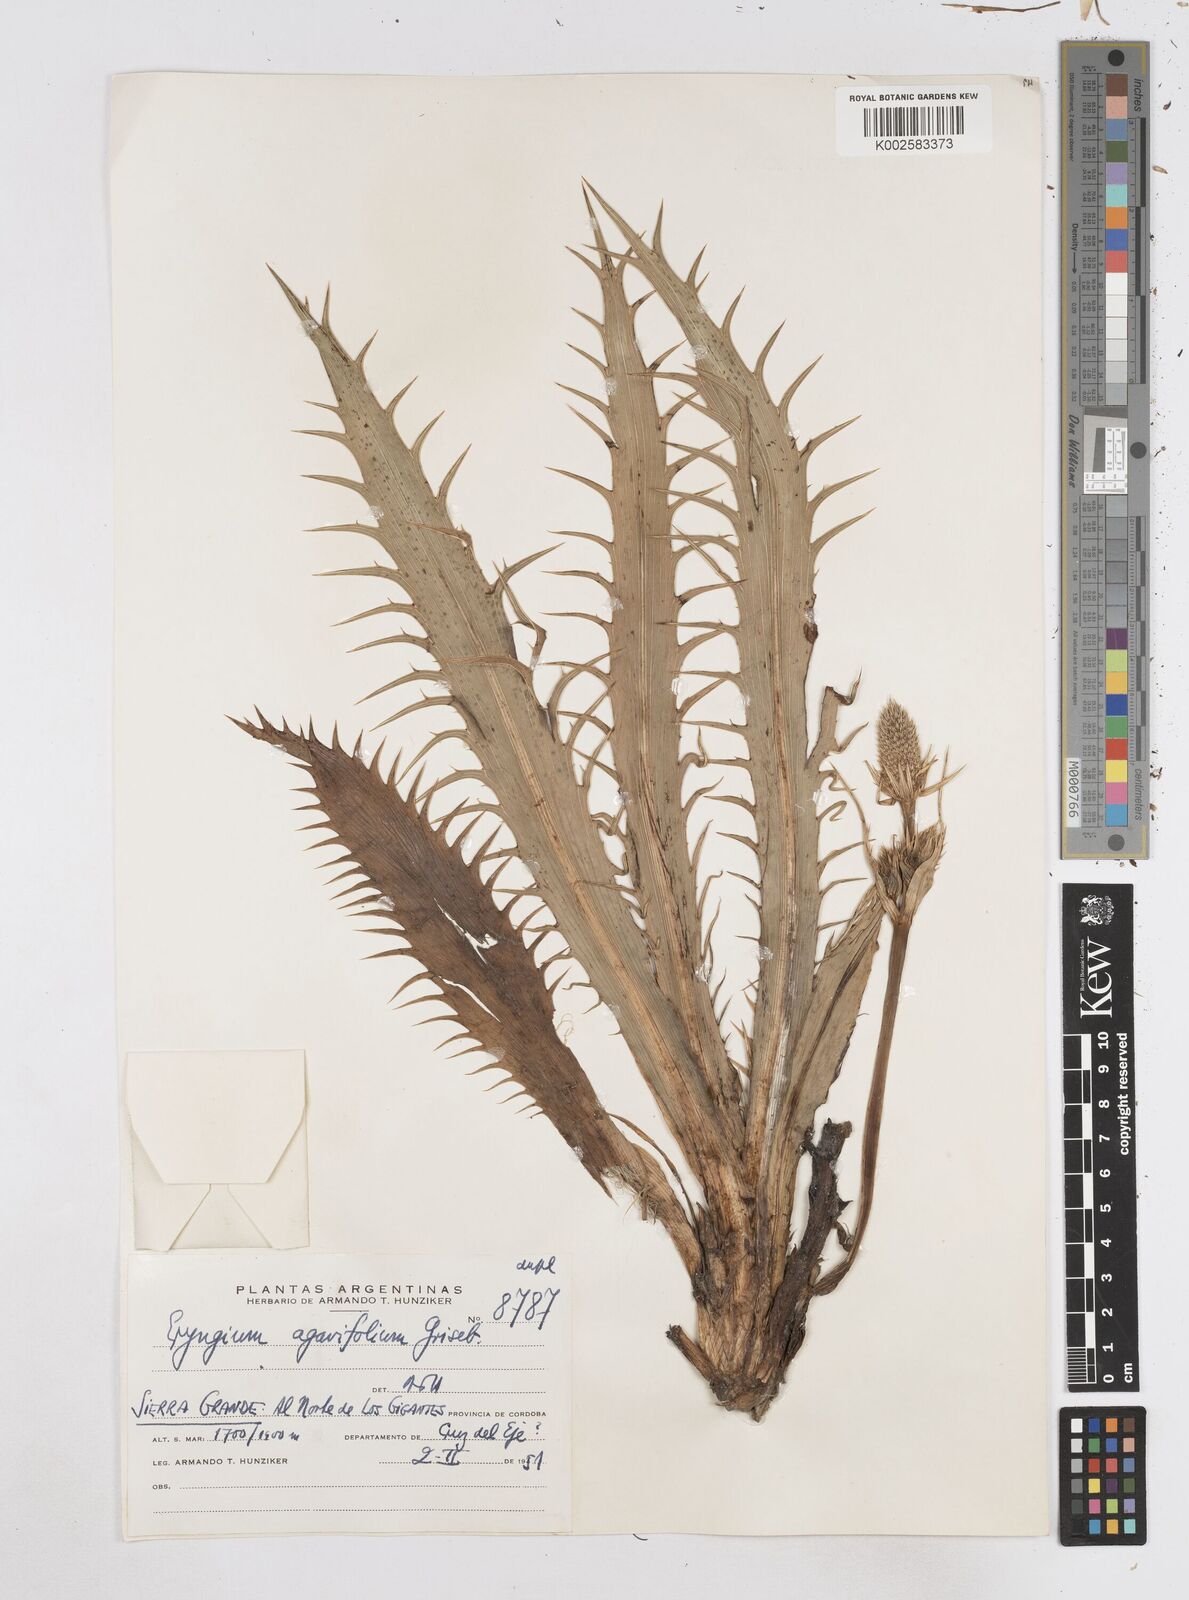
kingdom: Plantae
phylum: Tracheophyta
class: Magnoliopsida
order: Apiales
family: Apiaceae
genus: Eryngium
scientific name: Eryngium agavifolium
